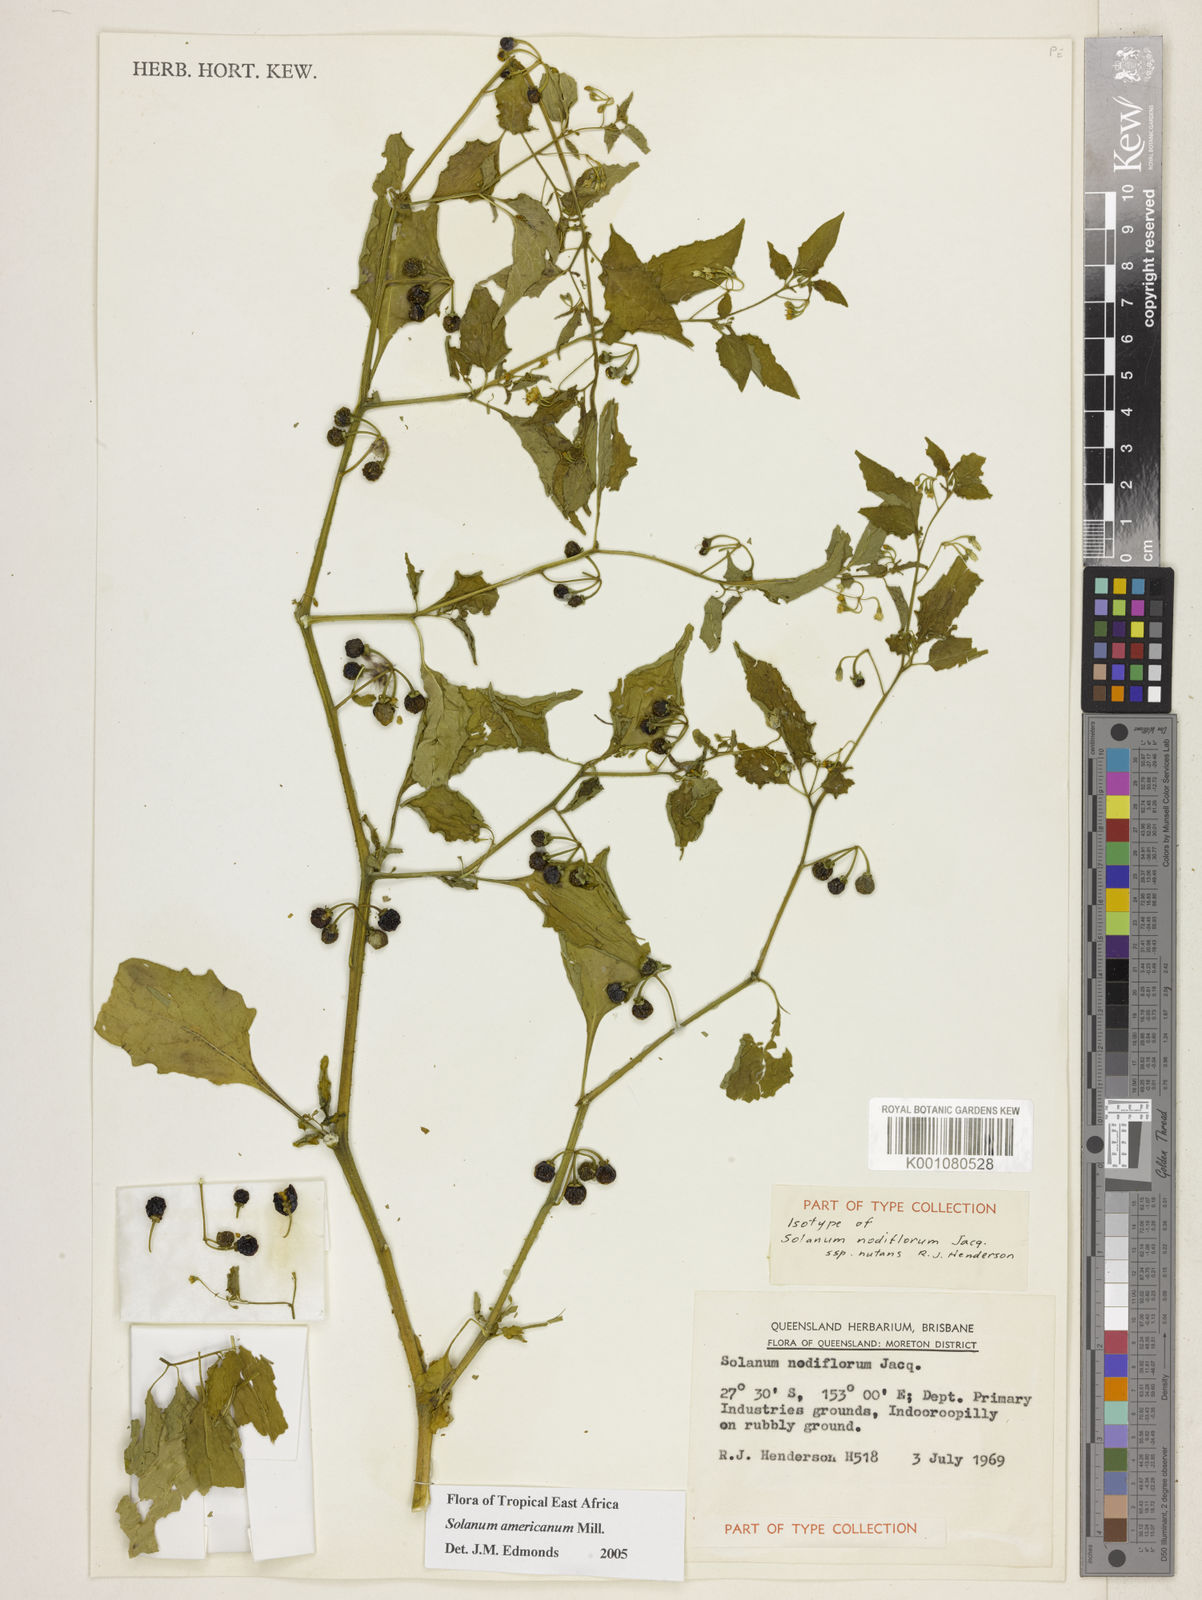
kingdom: Plantae
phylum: Tracheophyta
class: Magnoliopsida
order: Solanales
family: Solanaceae
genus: Solanum
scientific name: Solanum americanum
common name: American black nightshade
